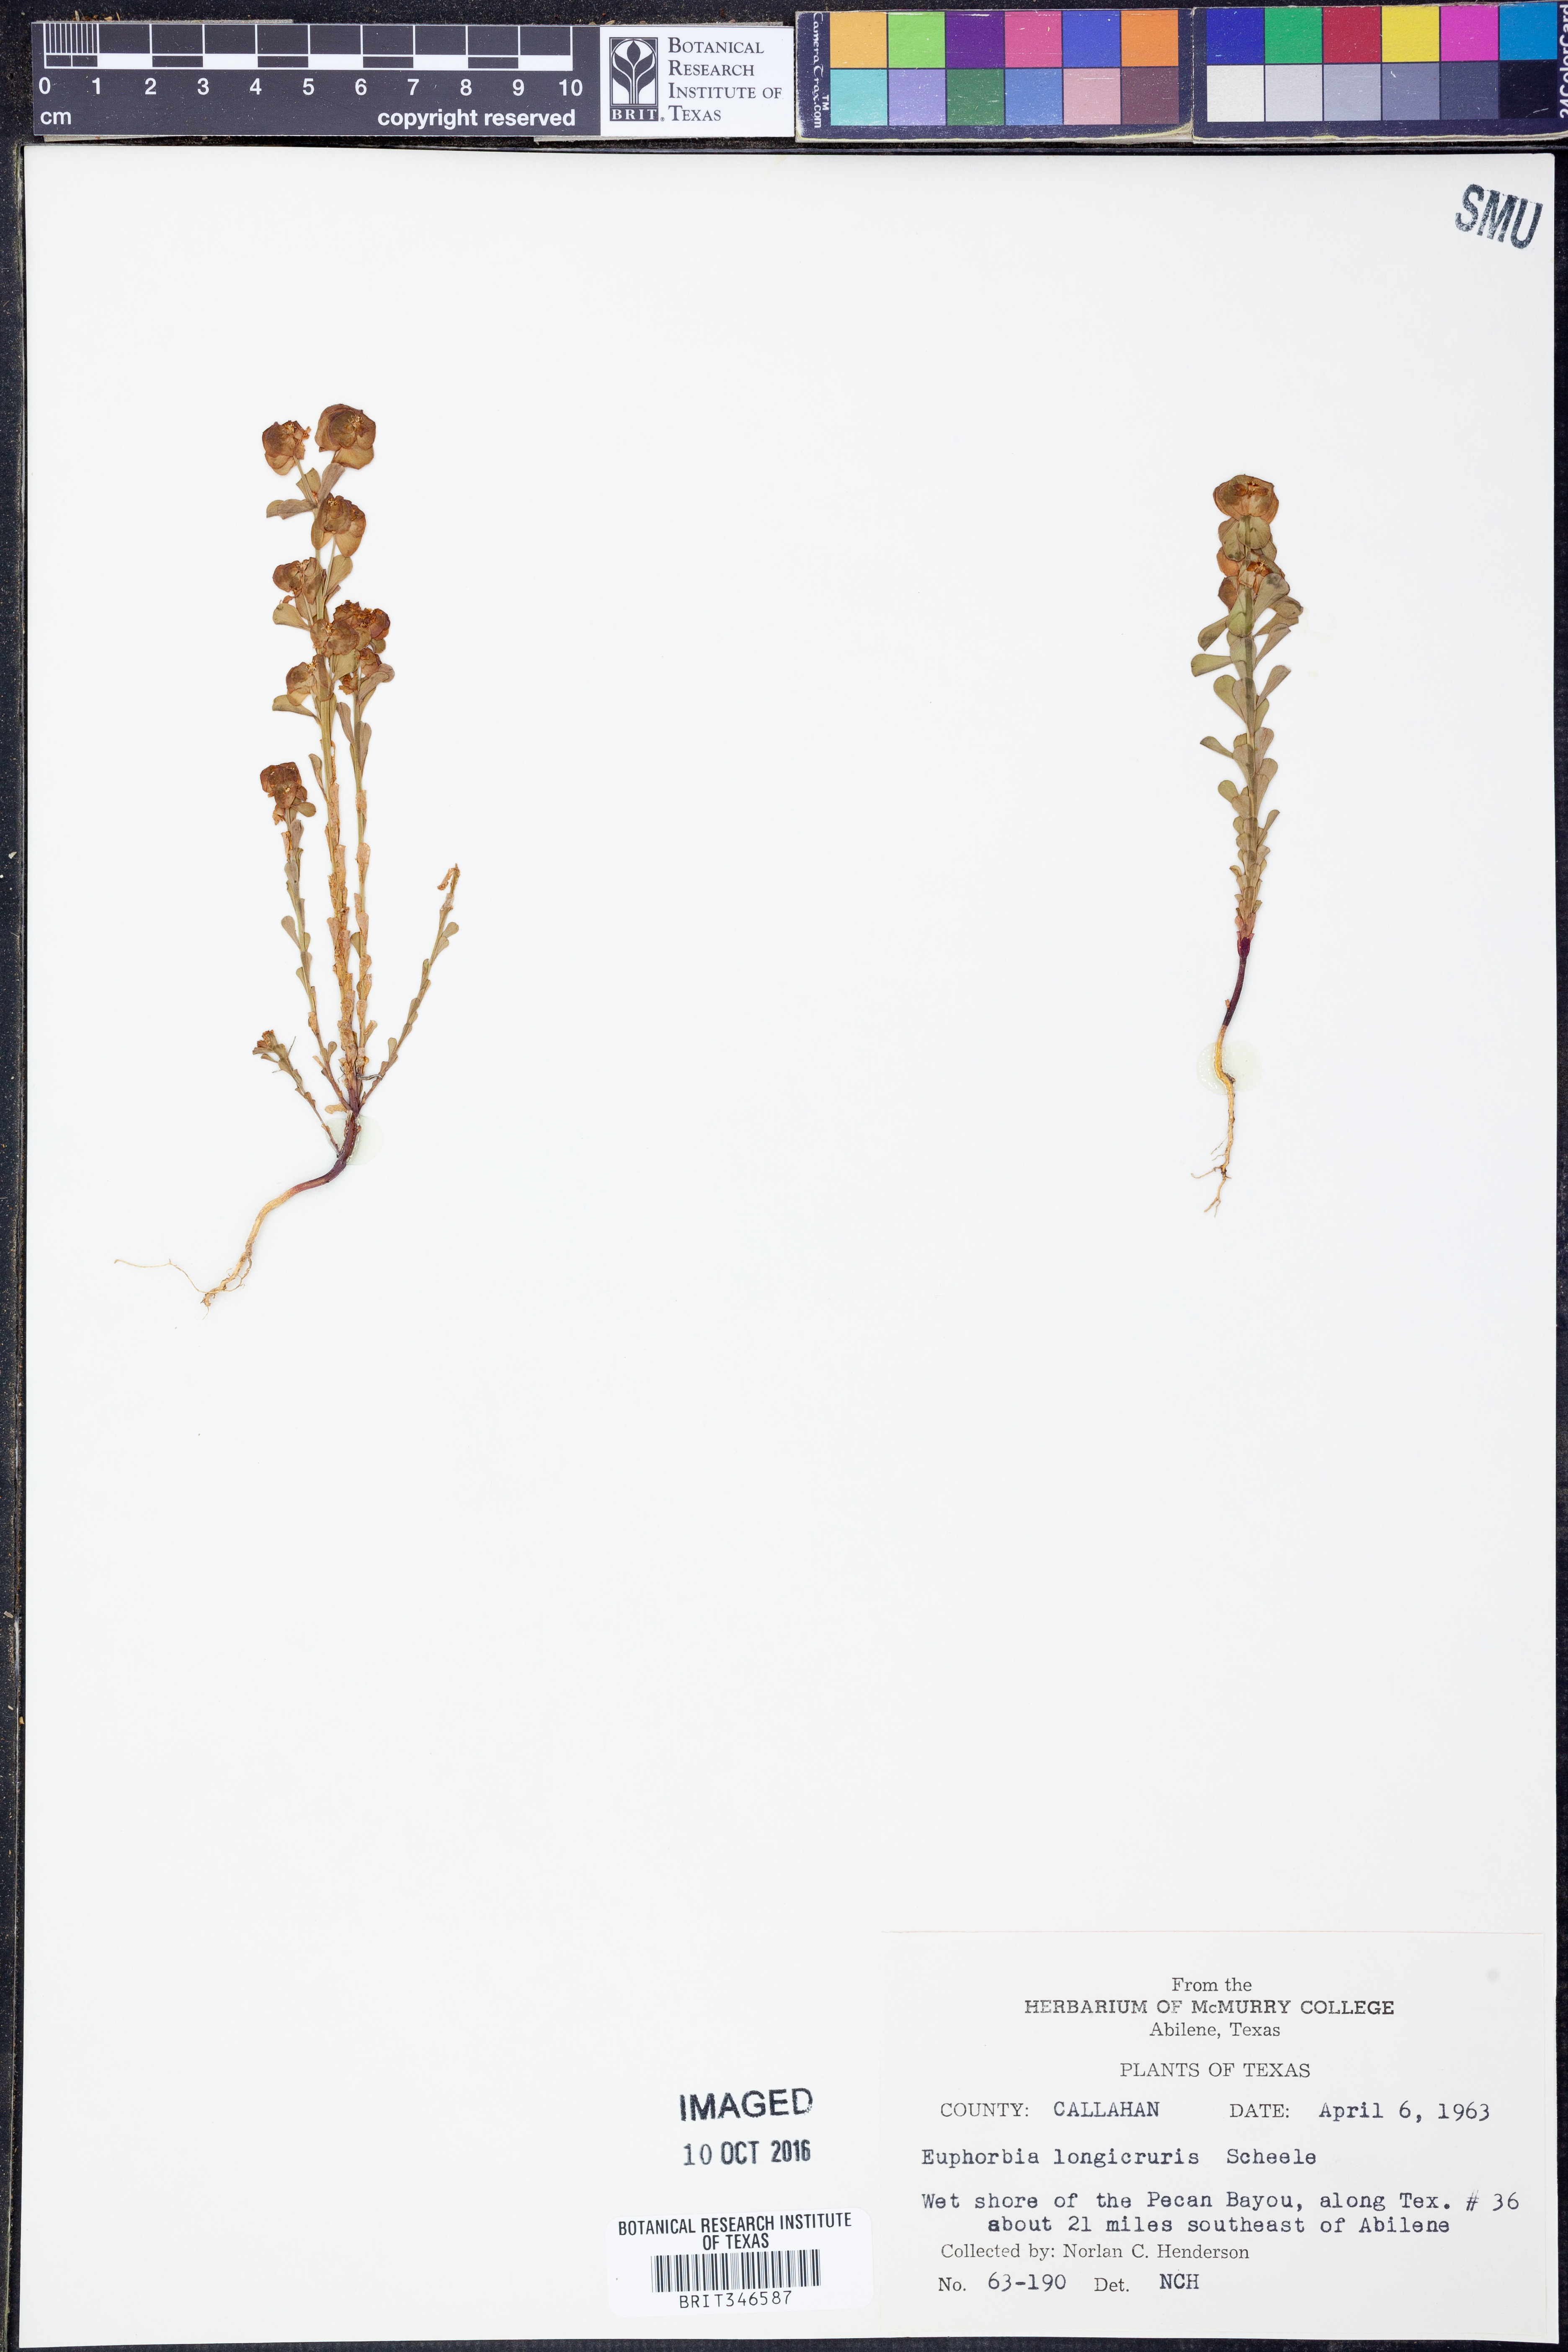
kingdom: Plantae
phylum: Tracheophyta
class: Magnoliopsida
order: Malpighiales
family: Euphorbiaceae
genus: Euphorbia
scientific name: Euphorbia longicruris
